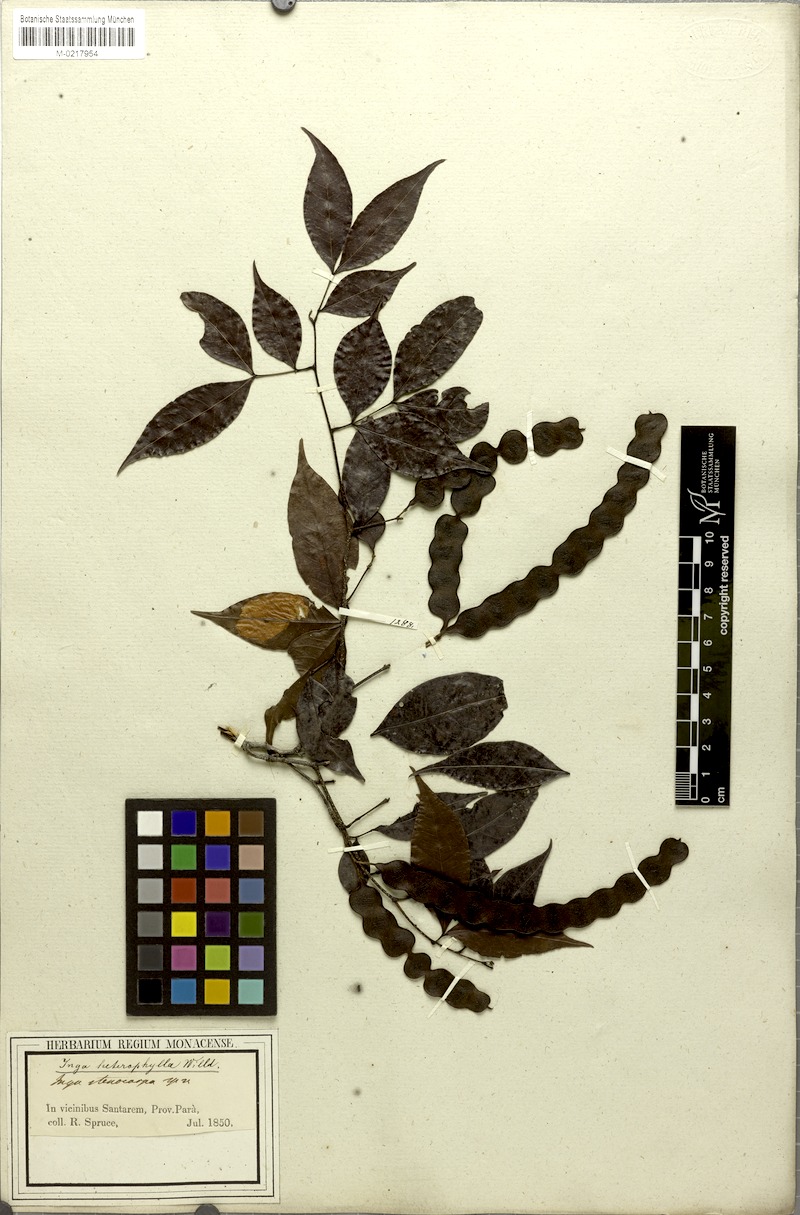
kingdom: Plantae
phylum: Tracheophyta
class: Magnoliopsida
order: Fabales
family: Fabaceae
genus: Inga
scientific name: Inga heterophylla
